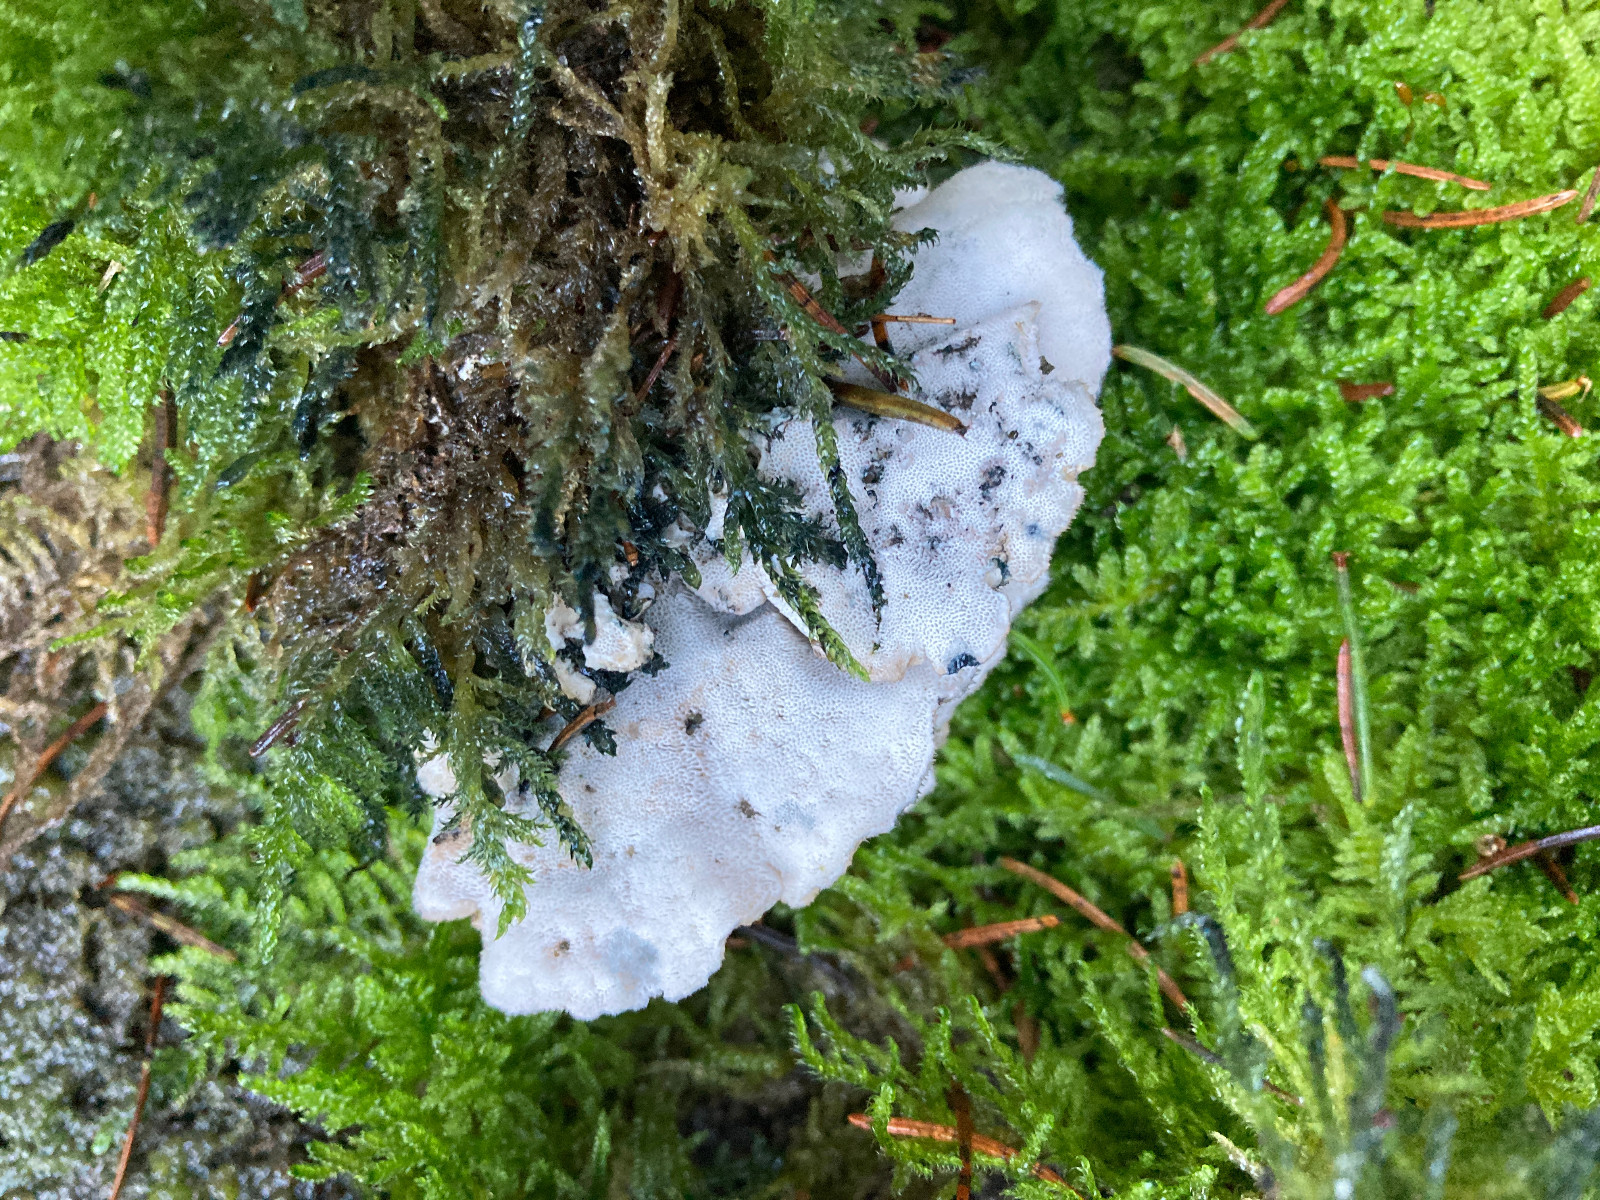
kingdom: Fungi
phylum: Basidiomycota
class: Agaricomycetes
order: Polyporales
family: Polyporaceae
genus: Cyanosporus
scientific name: Cyanosporus caesius
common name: blålig kødporesvamp
